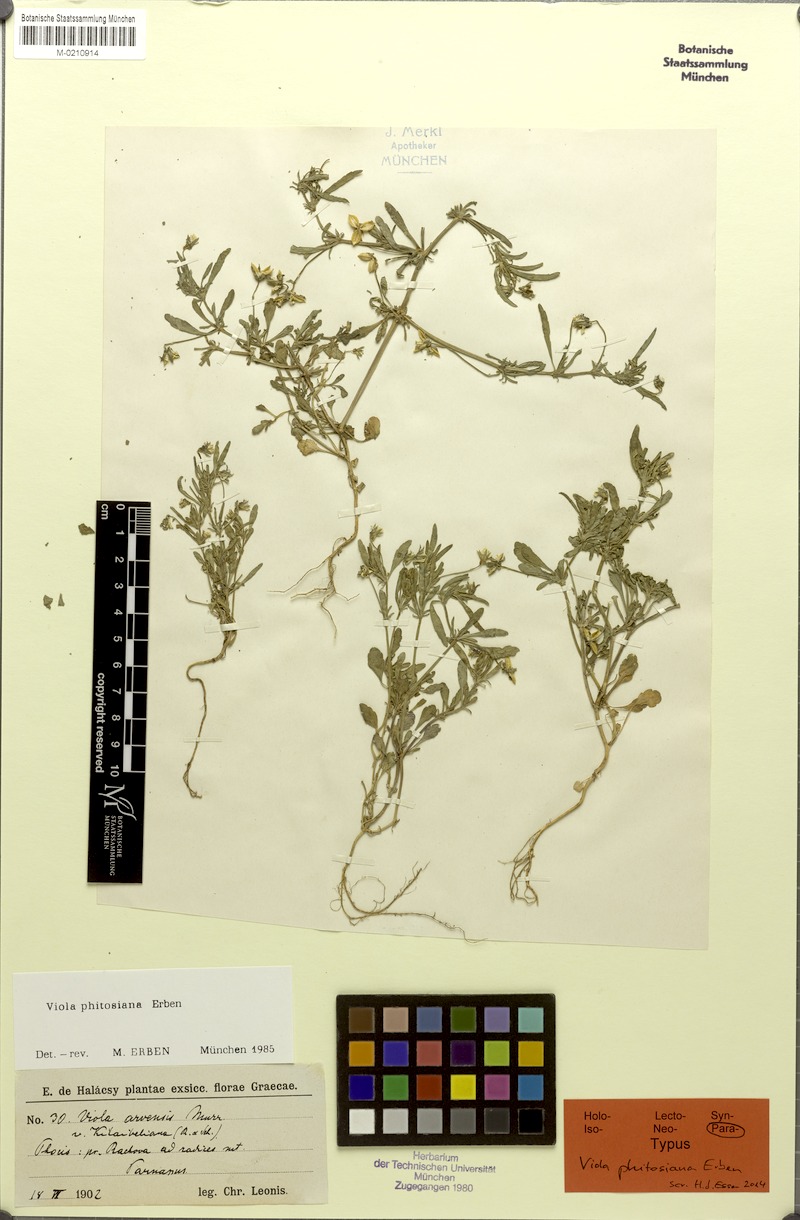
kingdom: Plantae
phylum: Tracheophyta
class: Magnoliopsida
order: Malpighiales
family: Violaceae
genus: Viola
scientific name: Viola phitosiana
